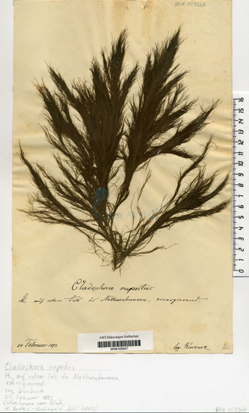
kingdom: Plantae
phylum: Chlorophyta
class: Ulvophyceae
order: Cladophorales
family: Cladophoraceae
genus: Cladophora
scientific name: Cladophora rupestris
